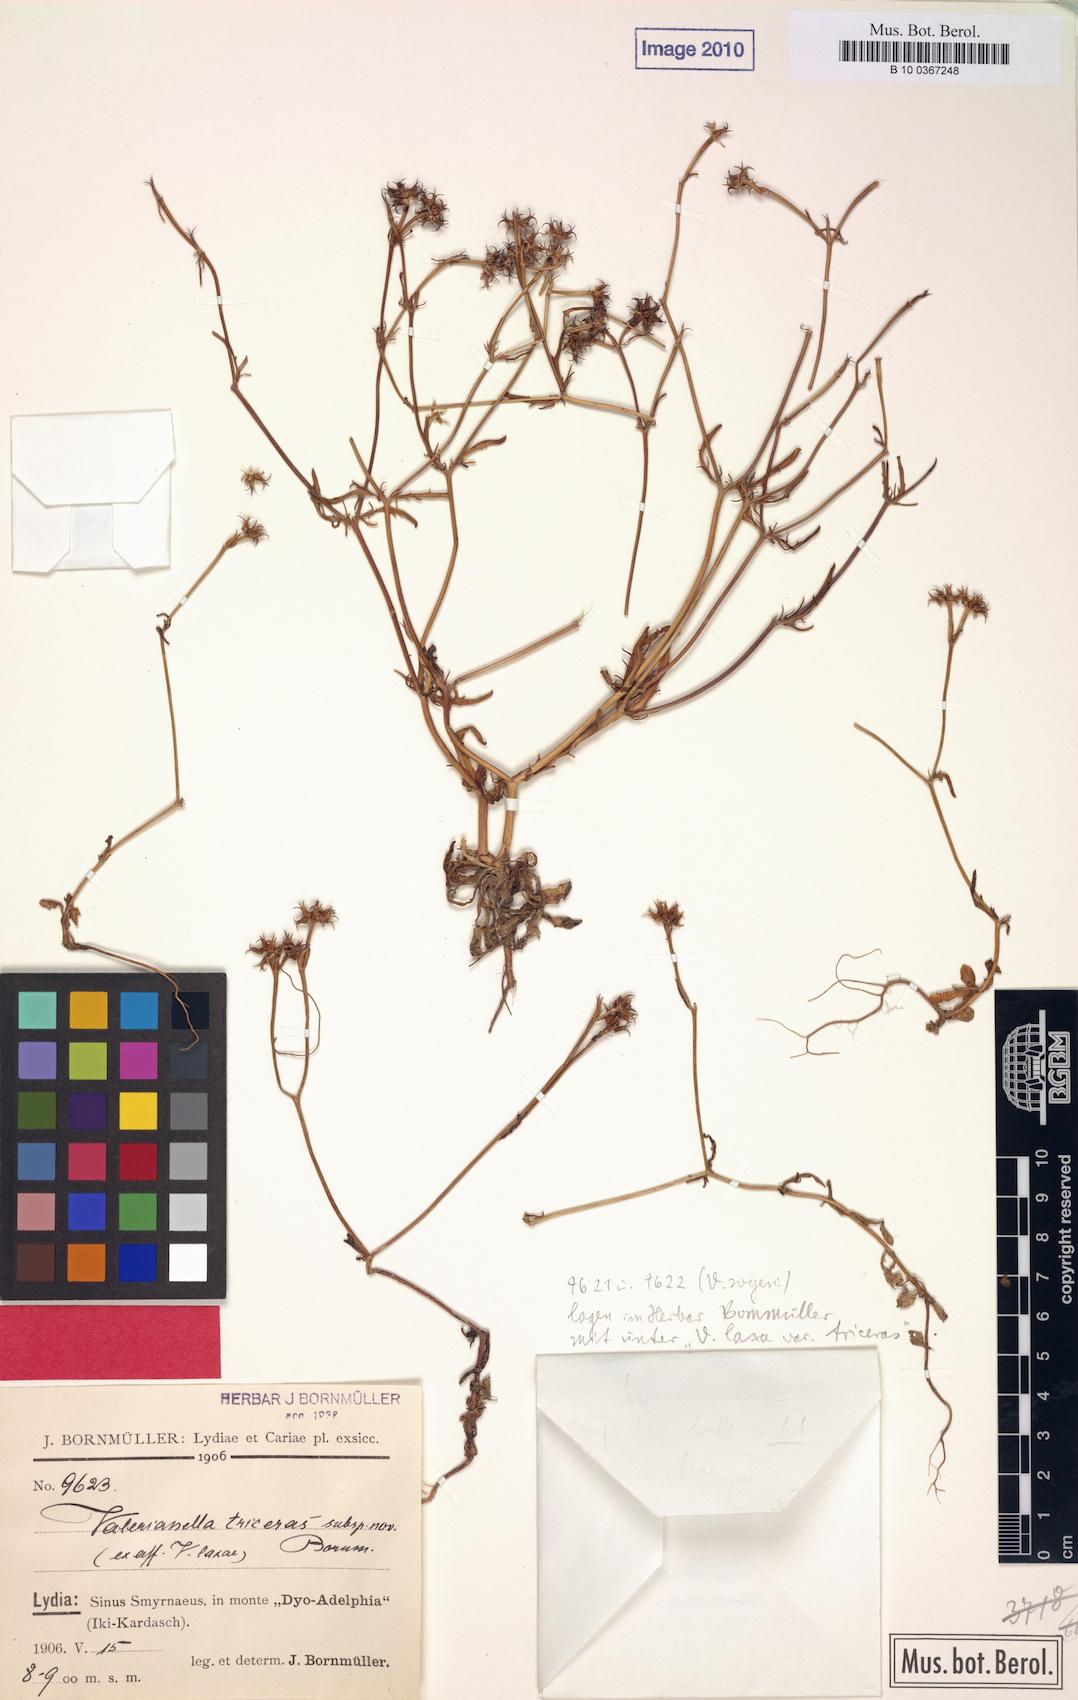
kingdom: Plantae
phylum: Tracheophyta
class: Magnoliopsida
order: Dipsacales
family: Caprifoliaceae
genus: Valerianella
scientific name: Valerianella triceras
